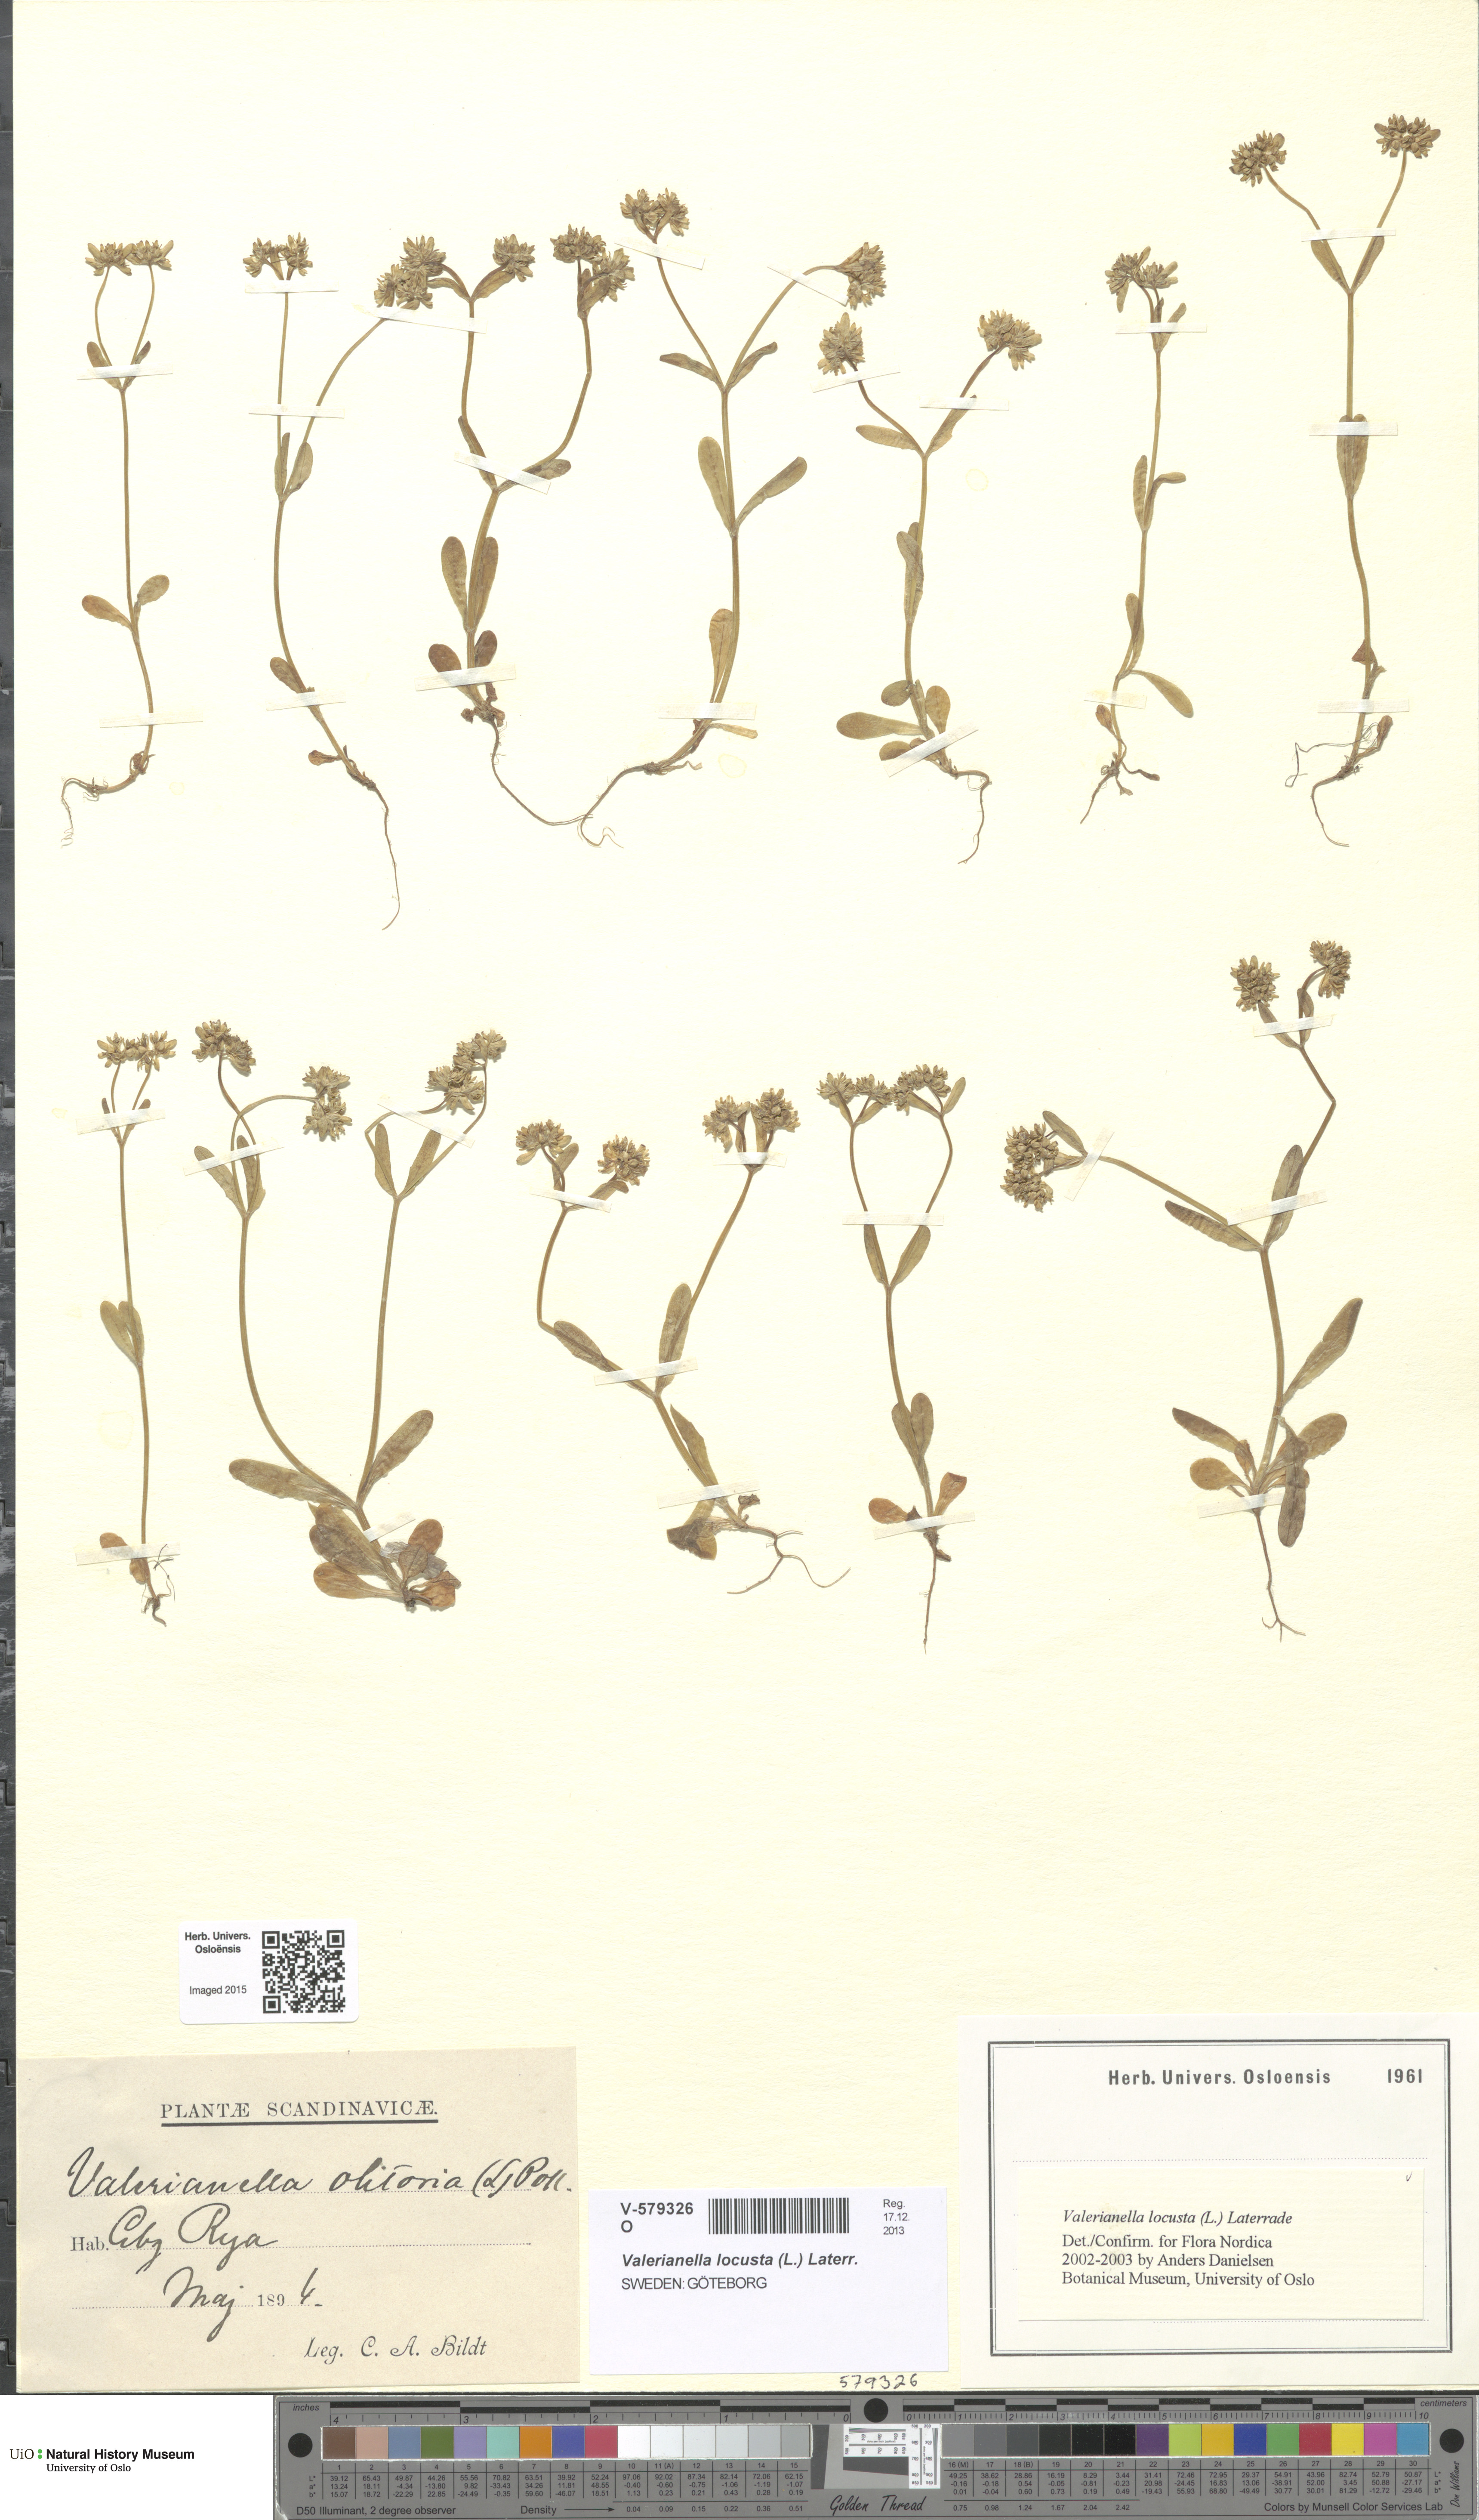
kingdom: Plantae
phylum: Tracheophyta
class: Magnoliopsida
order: Dipsacales
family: Caprifoliaceae
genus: Valerianella
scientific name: Valerianella locusta
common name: Common cornsalad
